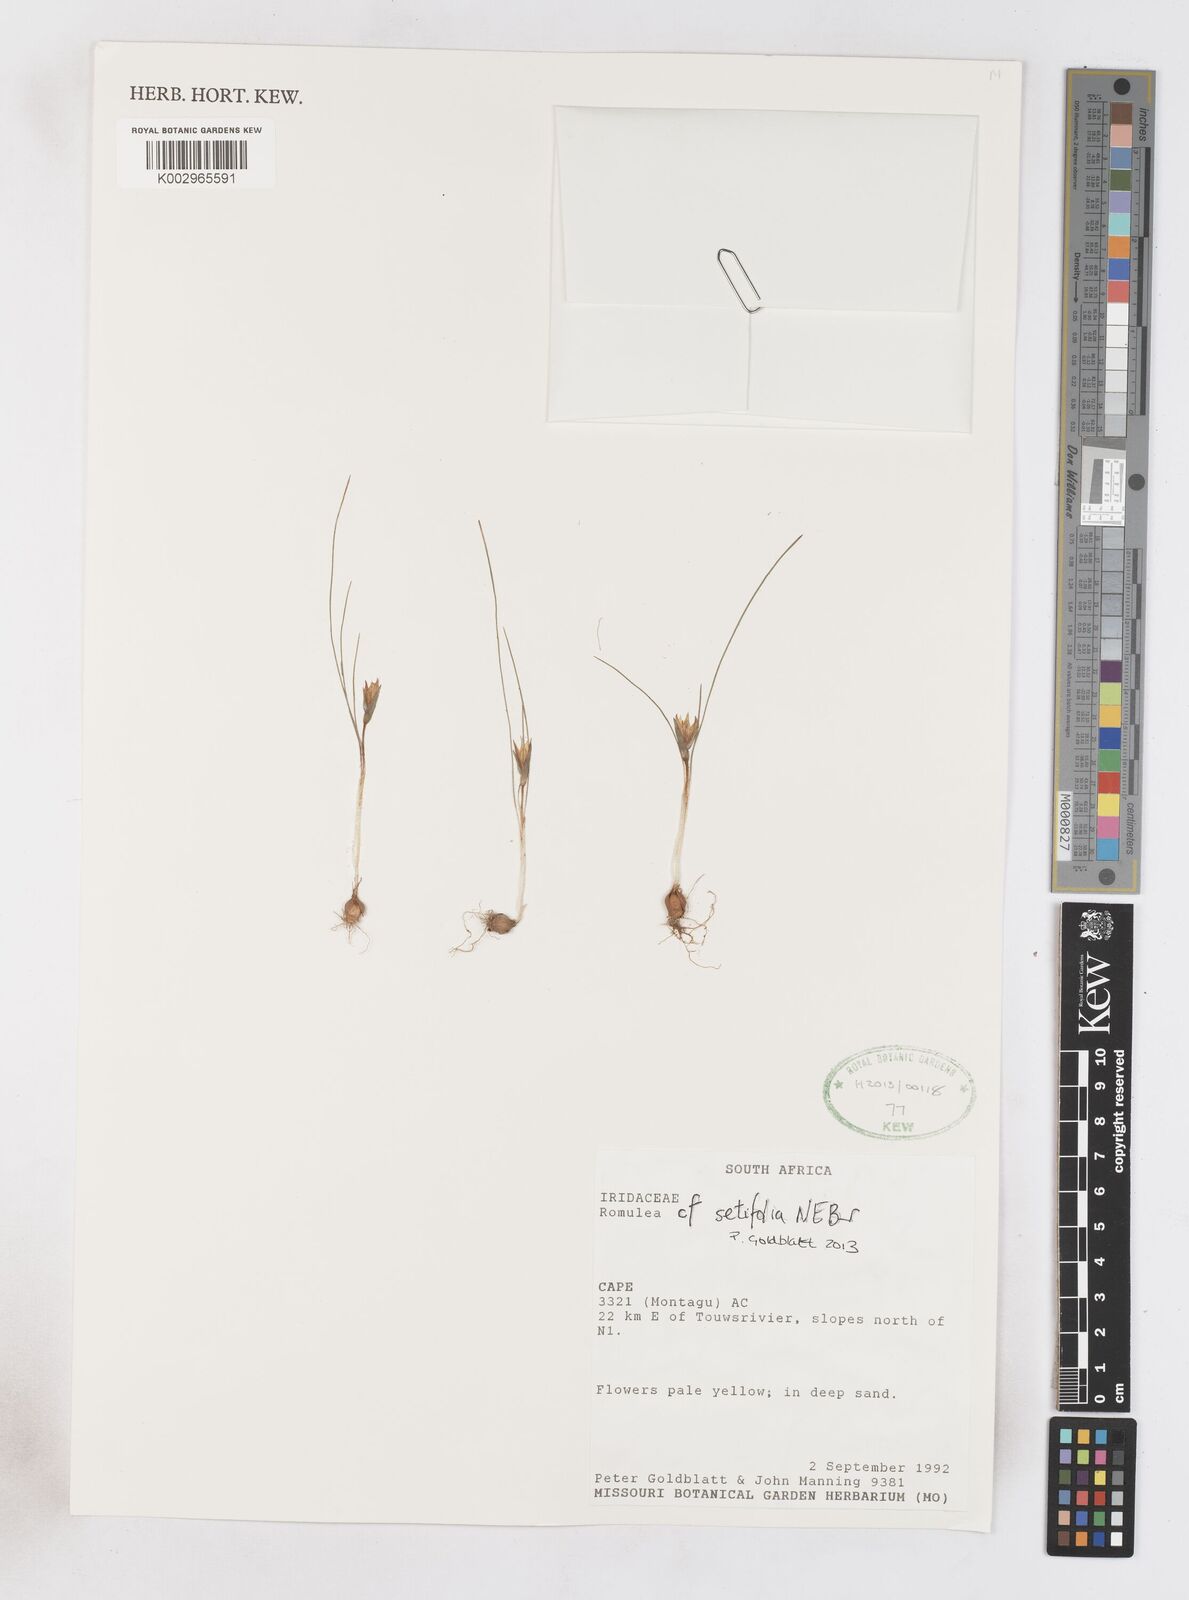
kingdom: Plantae
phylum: Tracheophyta
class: Liliopsida
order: Asparagales
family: Iridaceae
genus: Romulea
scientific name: Romulea setifolia
